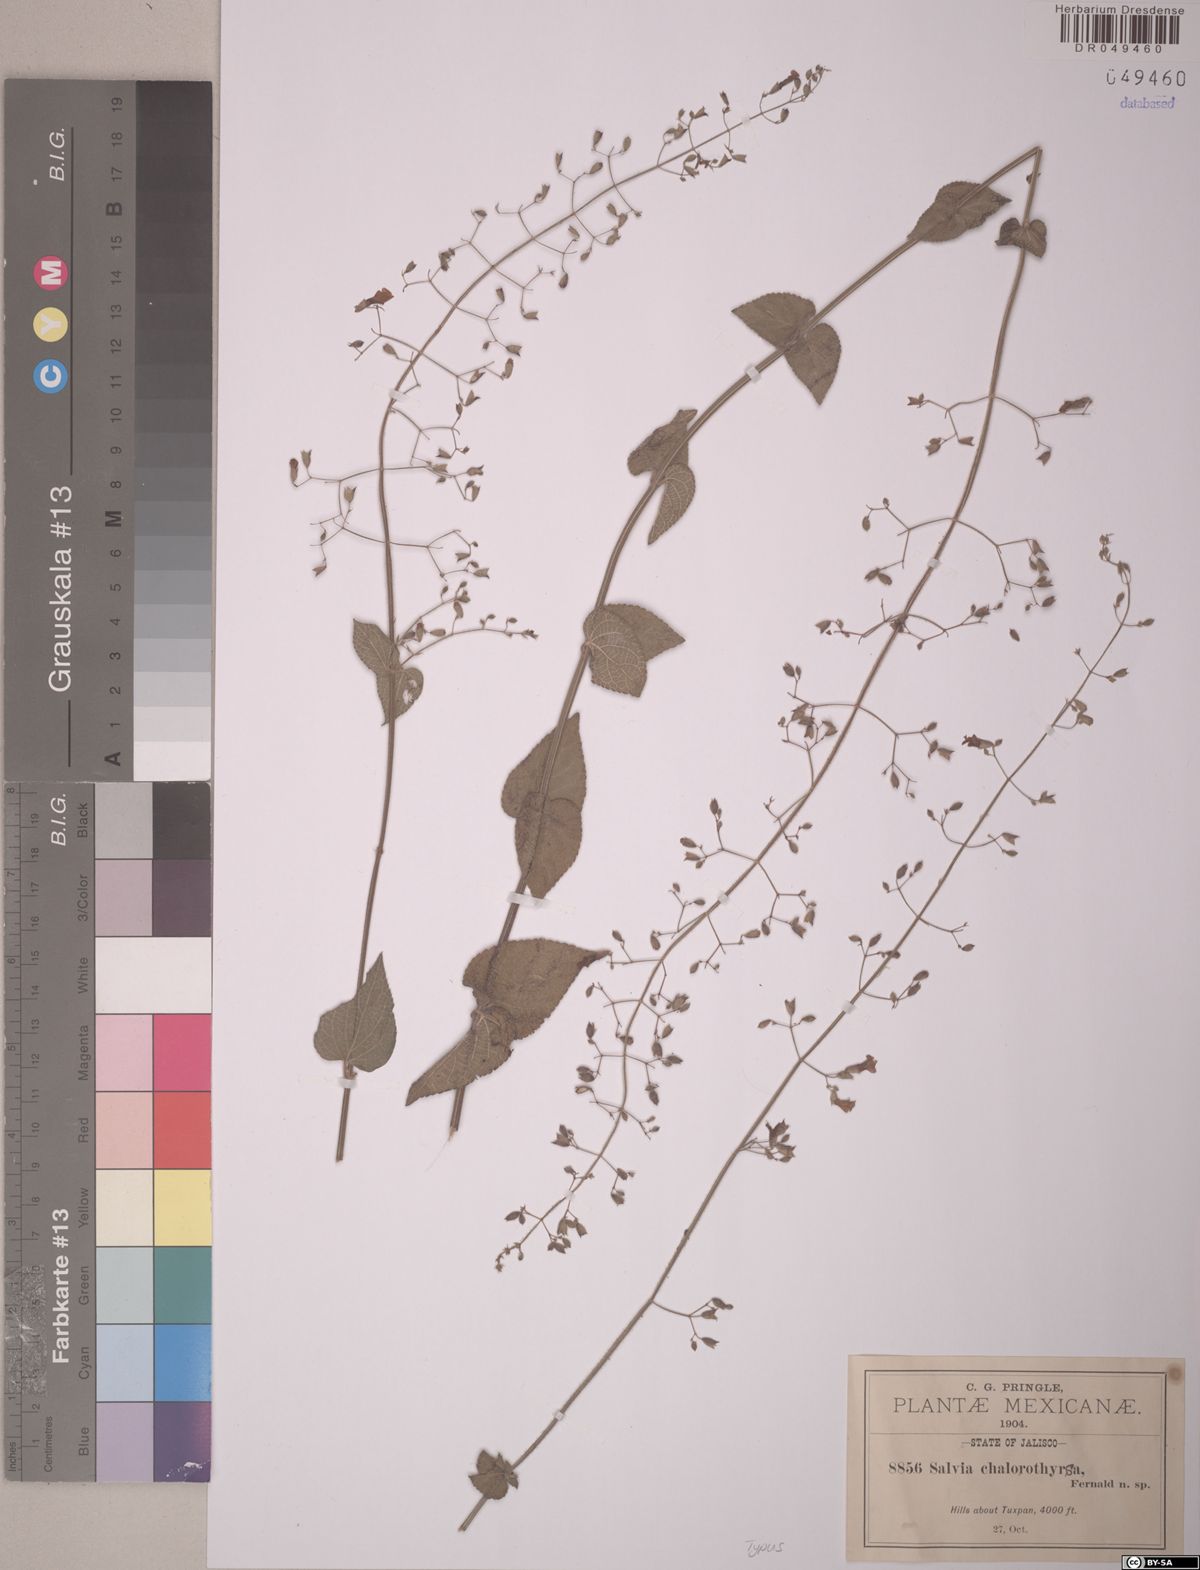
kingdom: Plantae
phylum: Tracheophyta
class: Magnoliopsida
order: Lamiales
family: Lamiaceae
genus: Salvia
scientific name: Salvia chalarothyrsa
